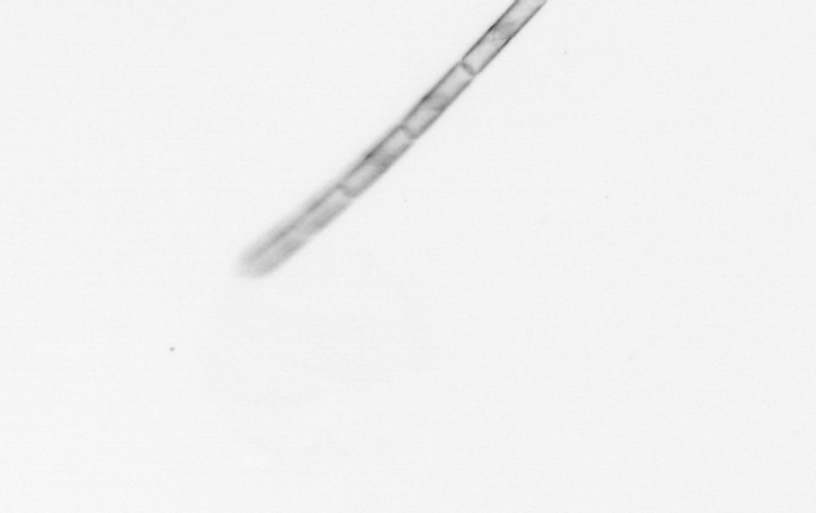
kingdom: Chromista
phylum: Ochrophyta
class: Bacillariophyceae
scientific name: Bacillariophyceae
